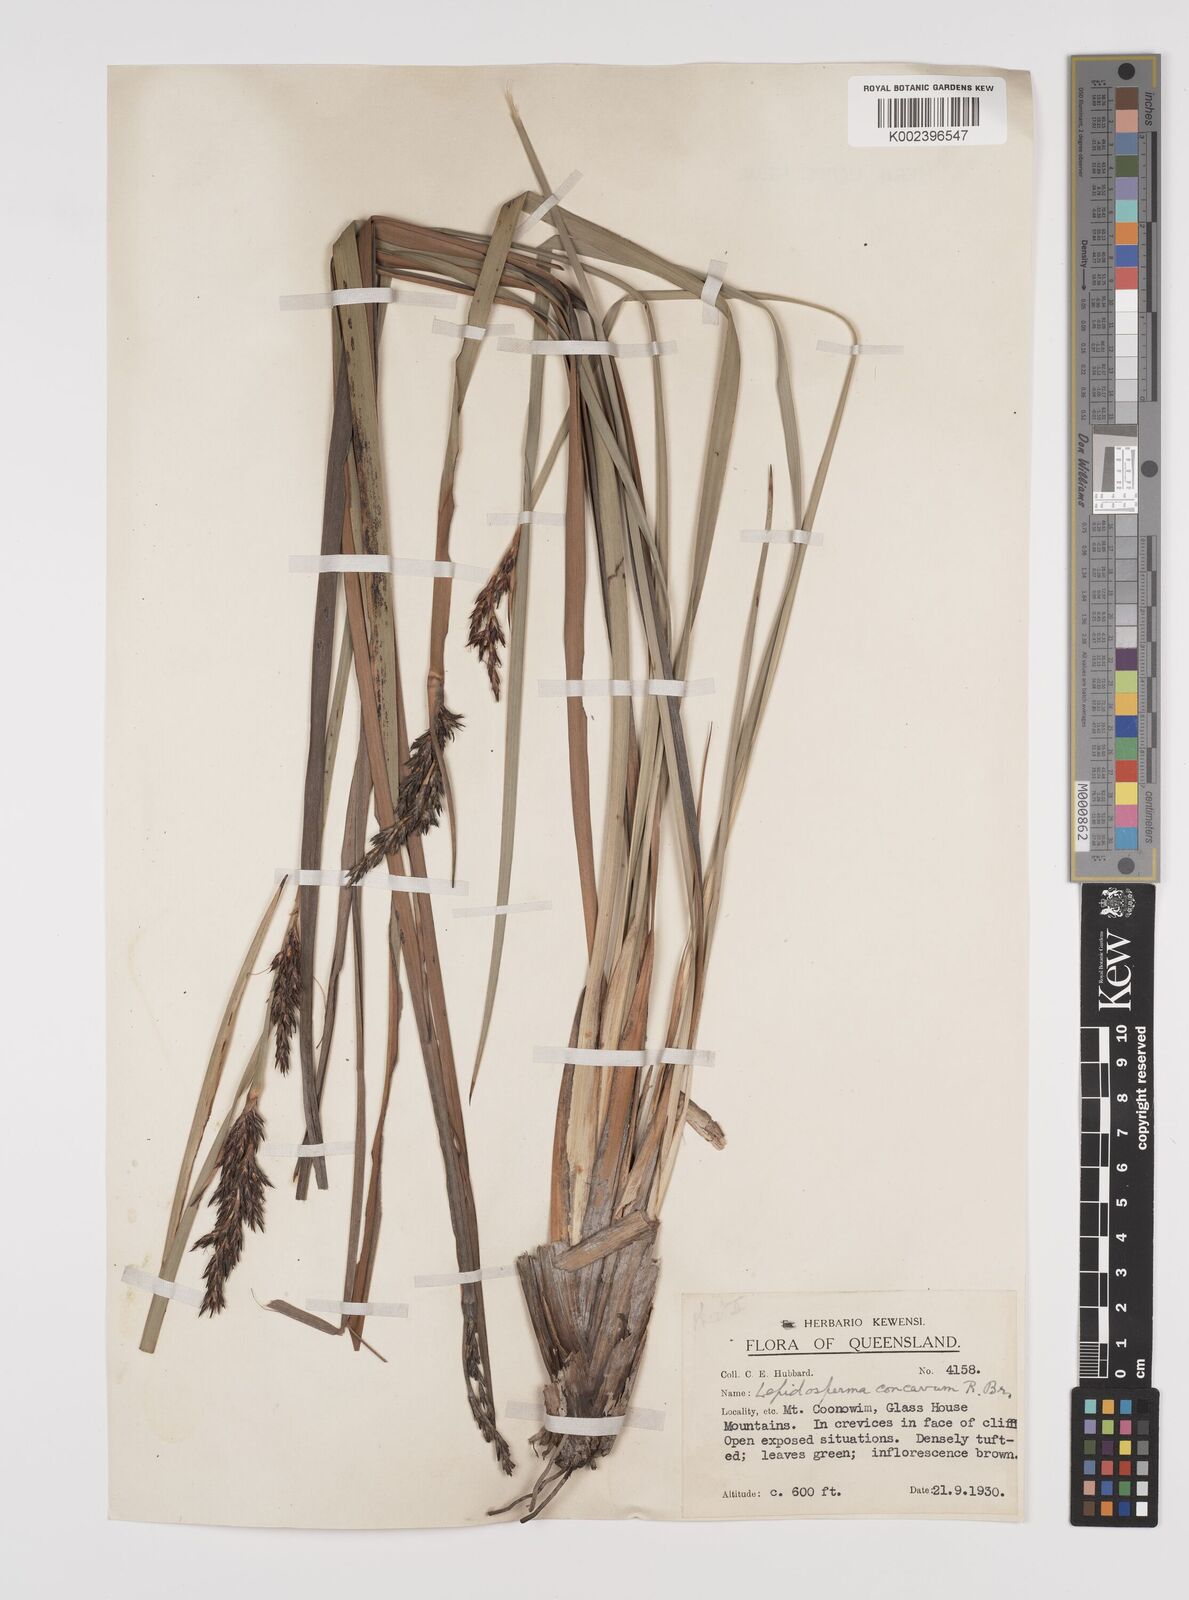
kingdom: Plantae
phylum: Tracheophyta
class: Liliopsida
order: Poales
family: Cyperaceae
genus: Lepidosperma
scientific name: Lepidosperma concavum
